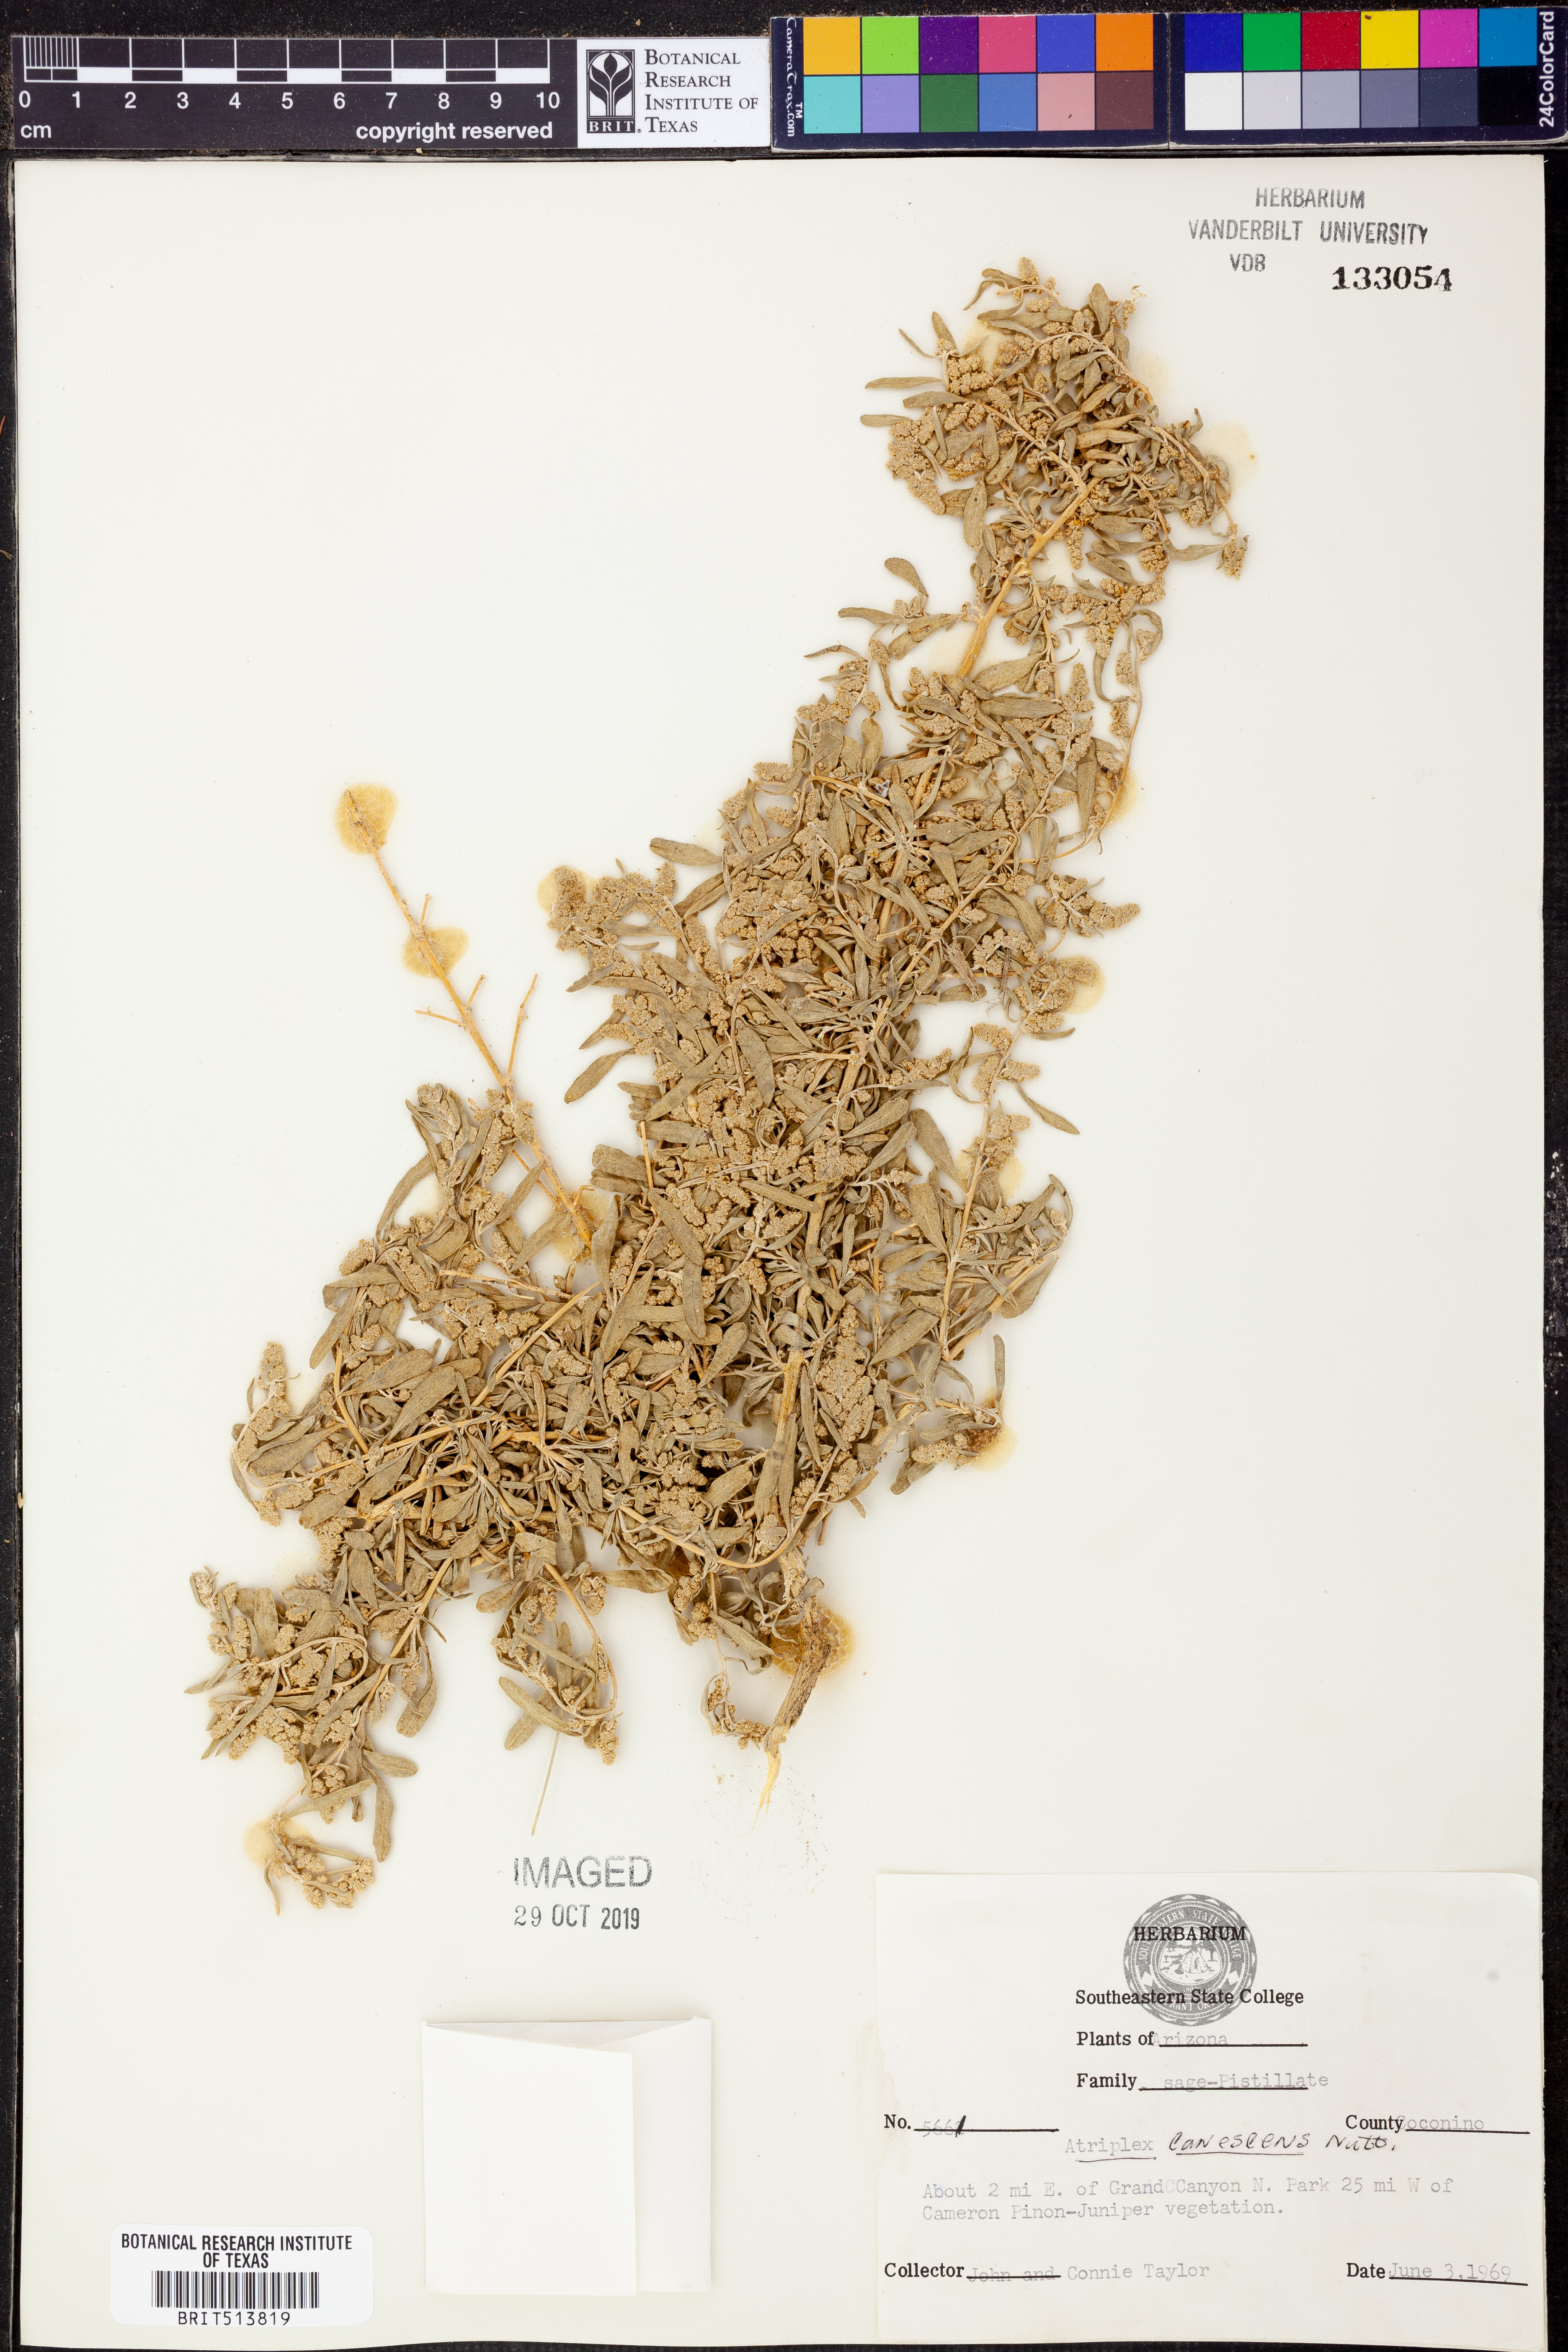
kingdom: Plantae
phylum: Tracheophyta
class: Magnoliopsida
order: Caryophyllales
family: Amaranthaceae
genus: Atriplex
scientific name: Atriplex canescens
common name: Four-wing saltbush
